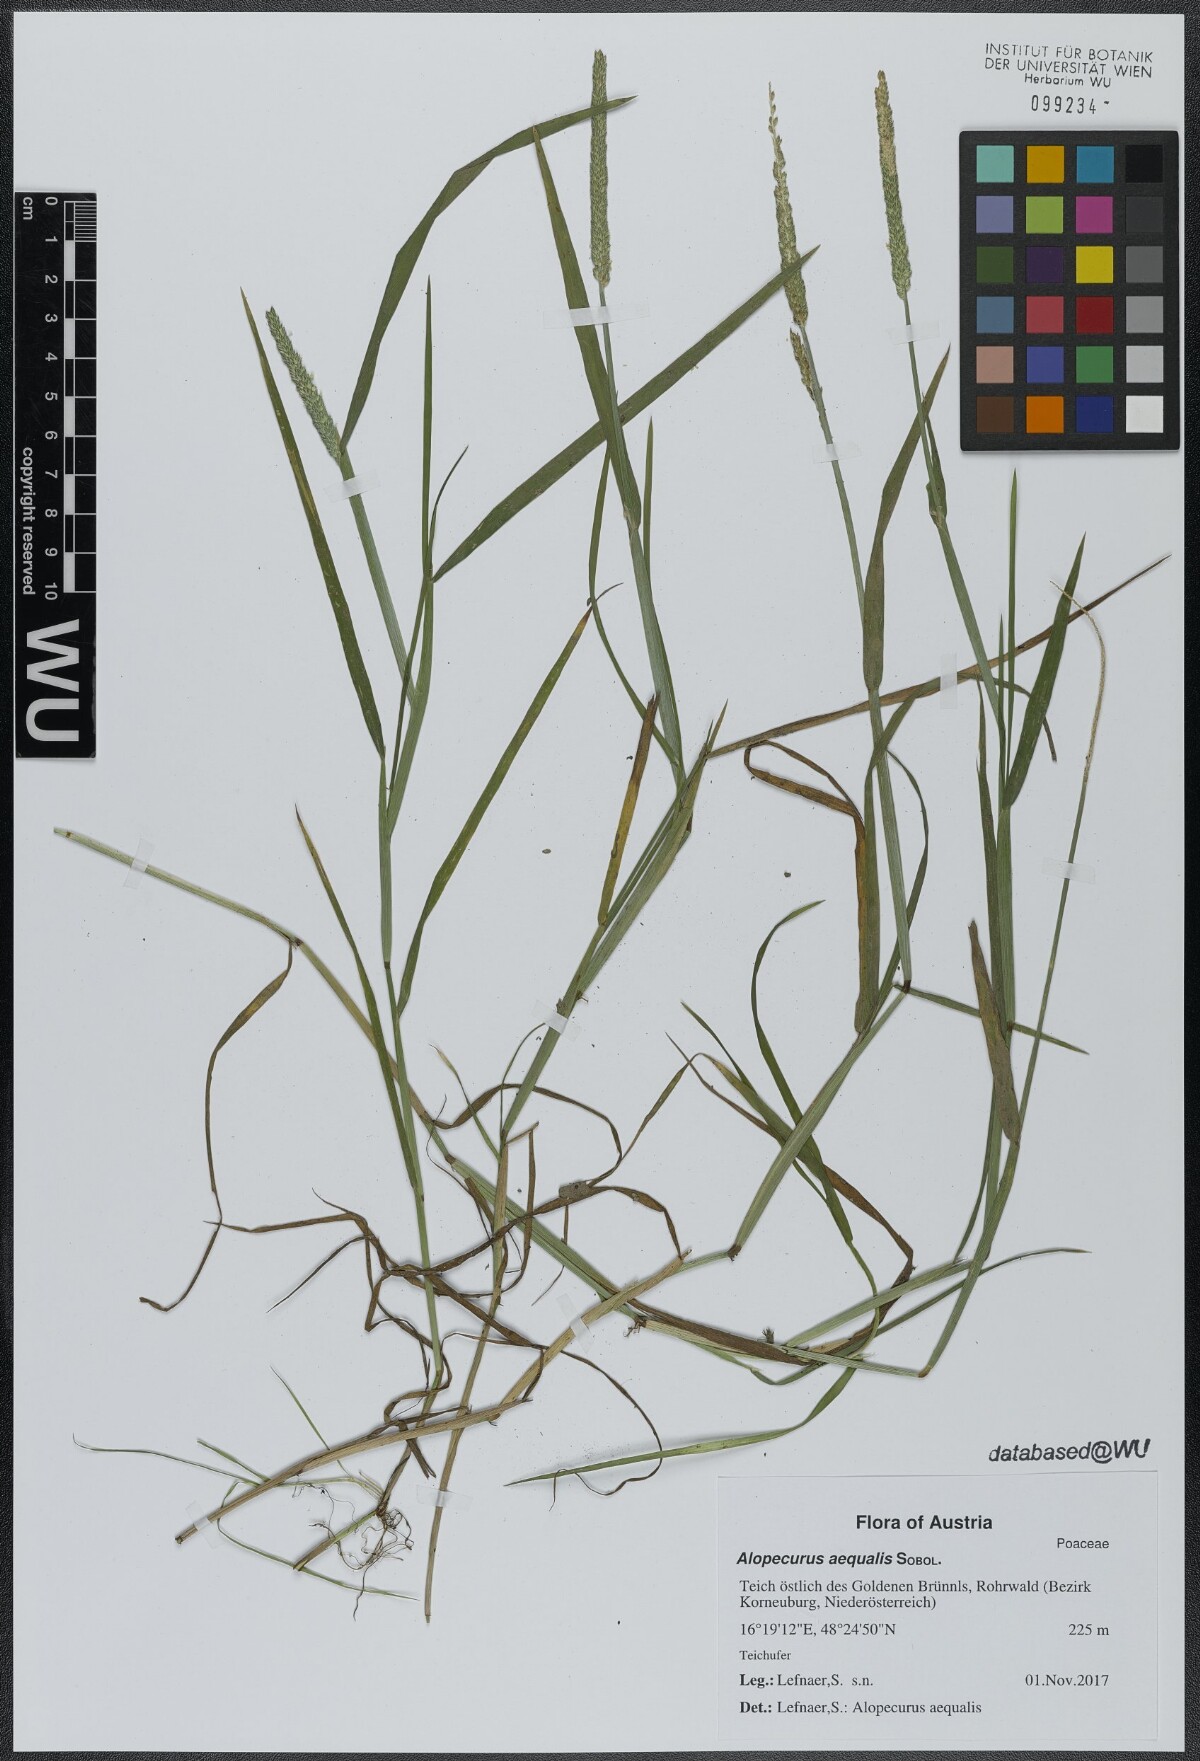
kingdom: Plantae
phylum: Tracheophyta
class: Liliopsida
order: Poales
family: Poaceae
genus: Alopecurus
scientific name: Alopecurus aequalis
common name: Orange foxtail
